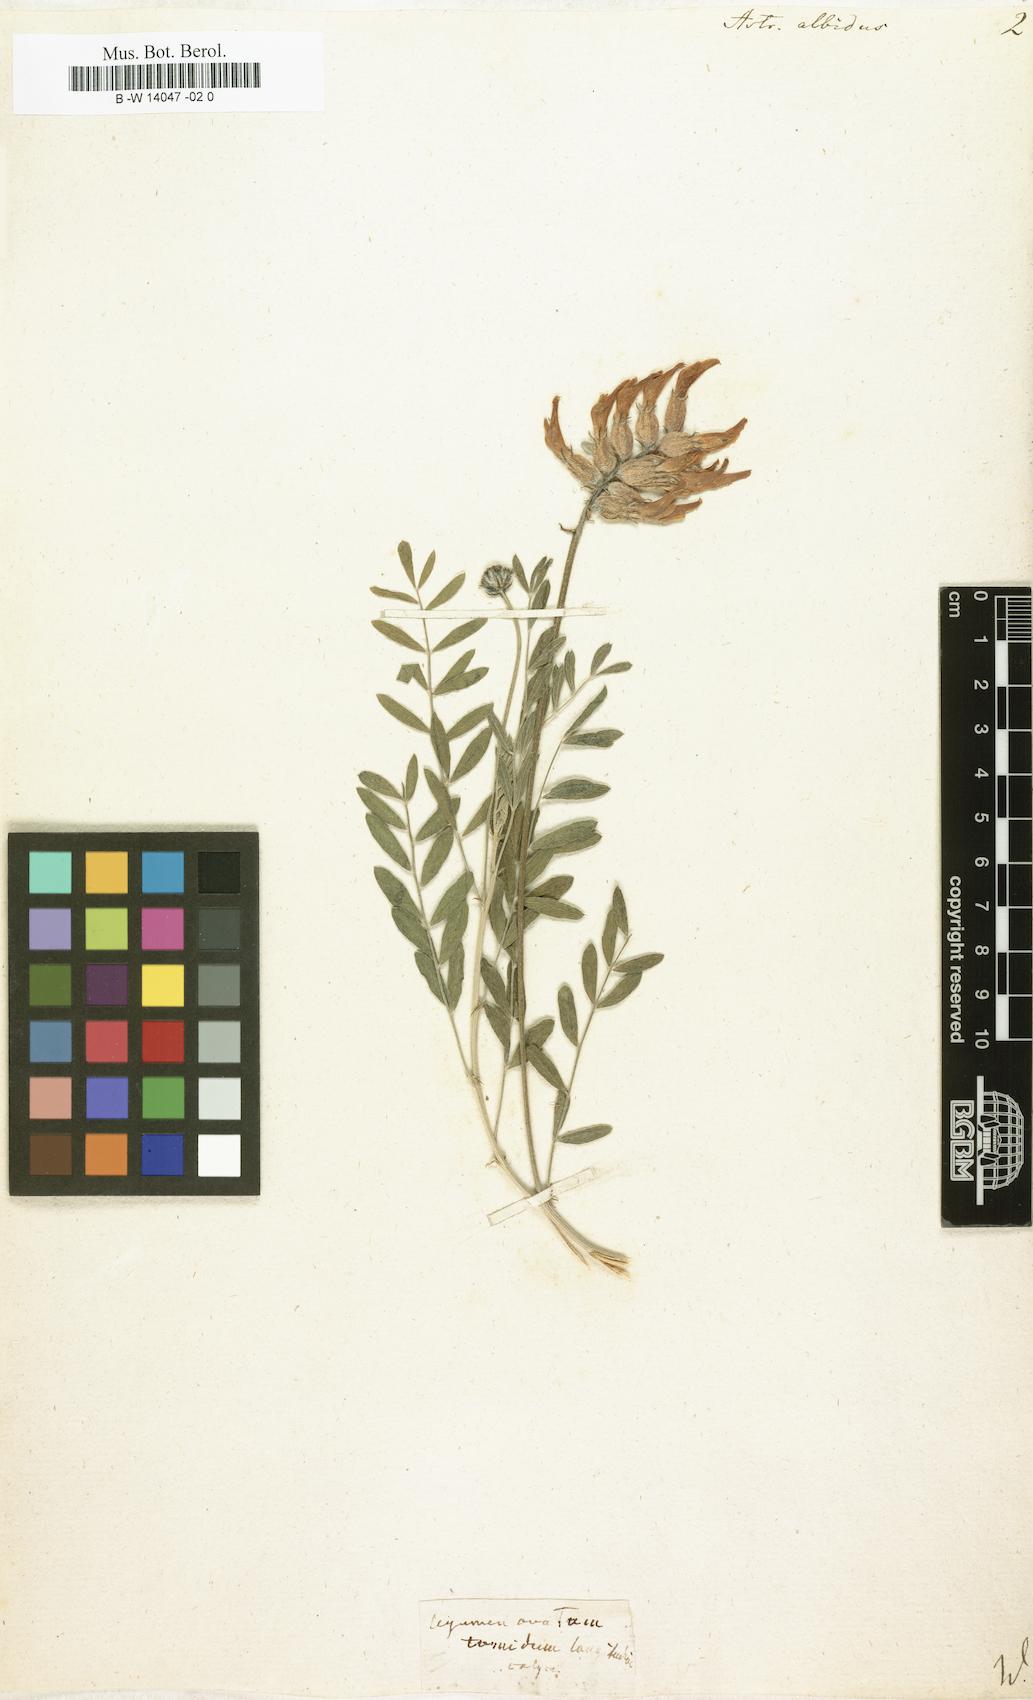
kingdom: Plantae
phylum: Tracheophyta
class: Magnoliopsida
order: Fabales
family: Fabaceae
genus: Astragalus
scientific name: Astragalus vesicarius
